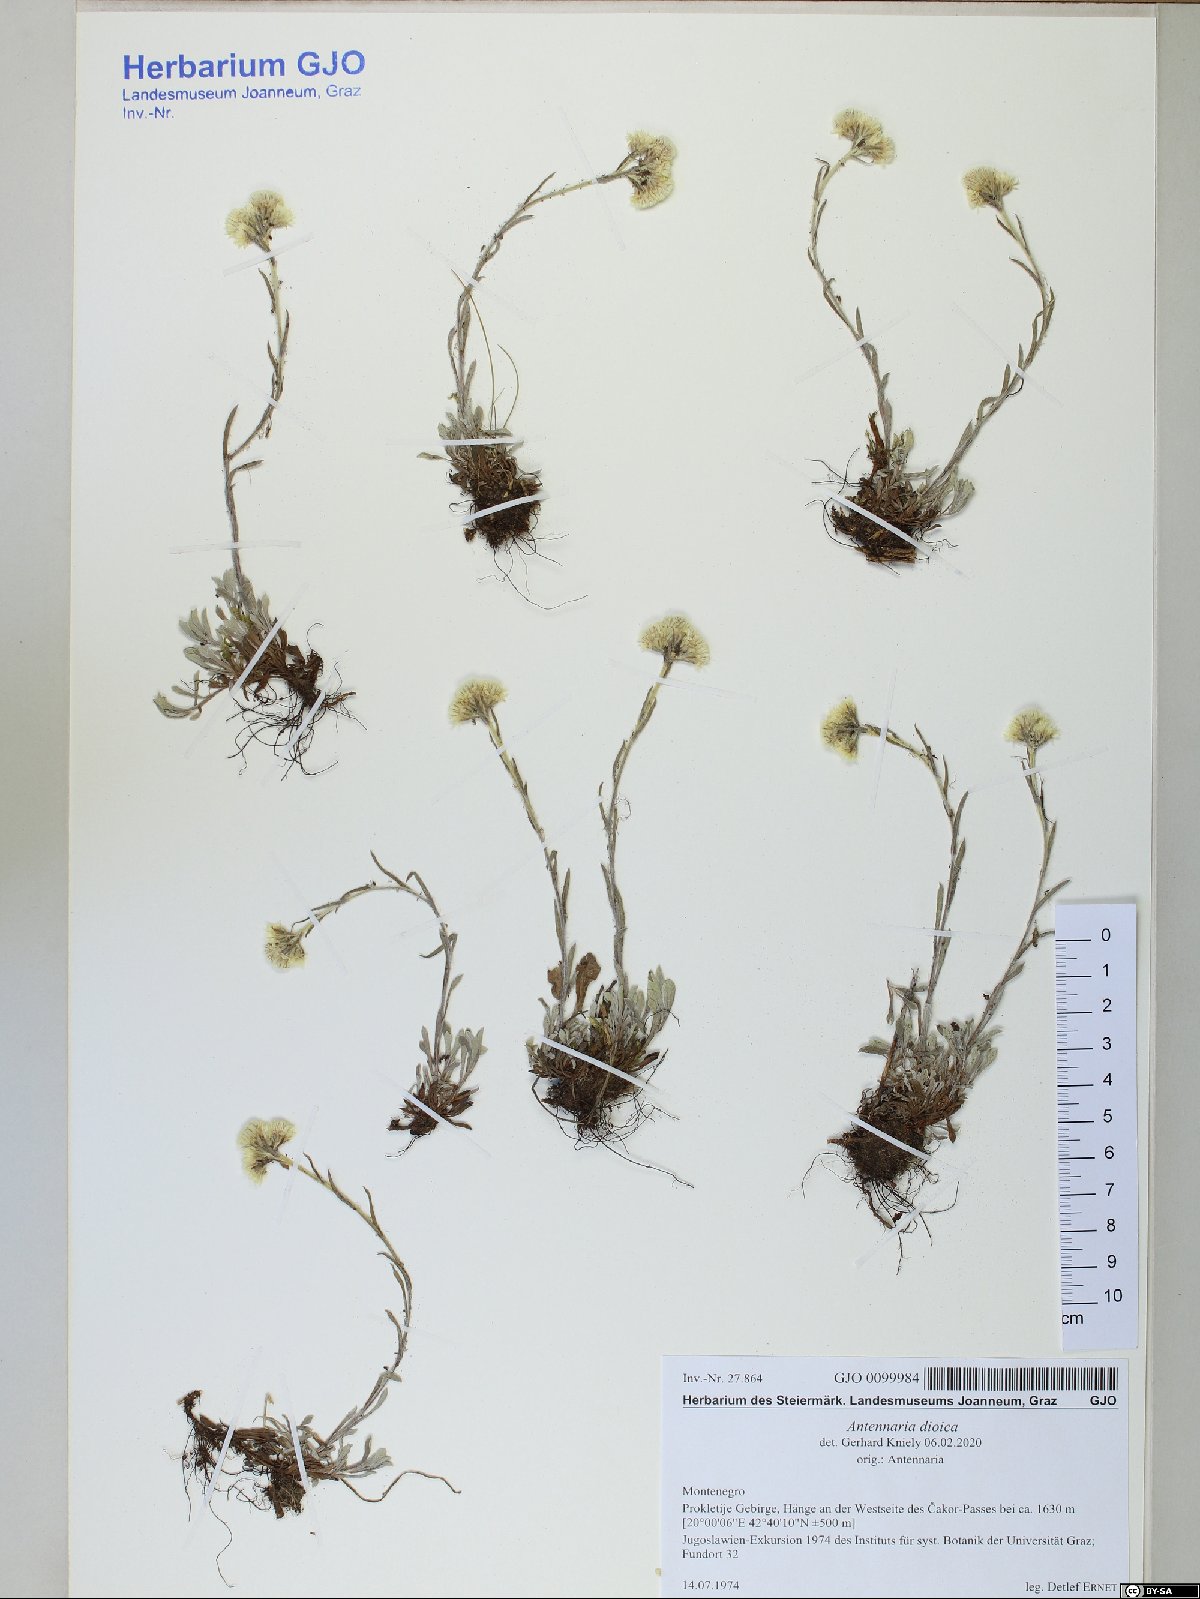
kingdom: Plantae
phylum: Tracheophyta
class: Magnoliopsida
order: Asterales
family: Asteraceae
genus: Antennaria
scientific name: Antennaria dioica
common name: Mountain everlasting
